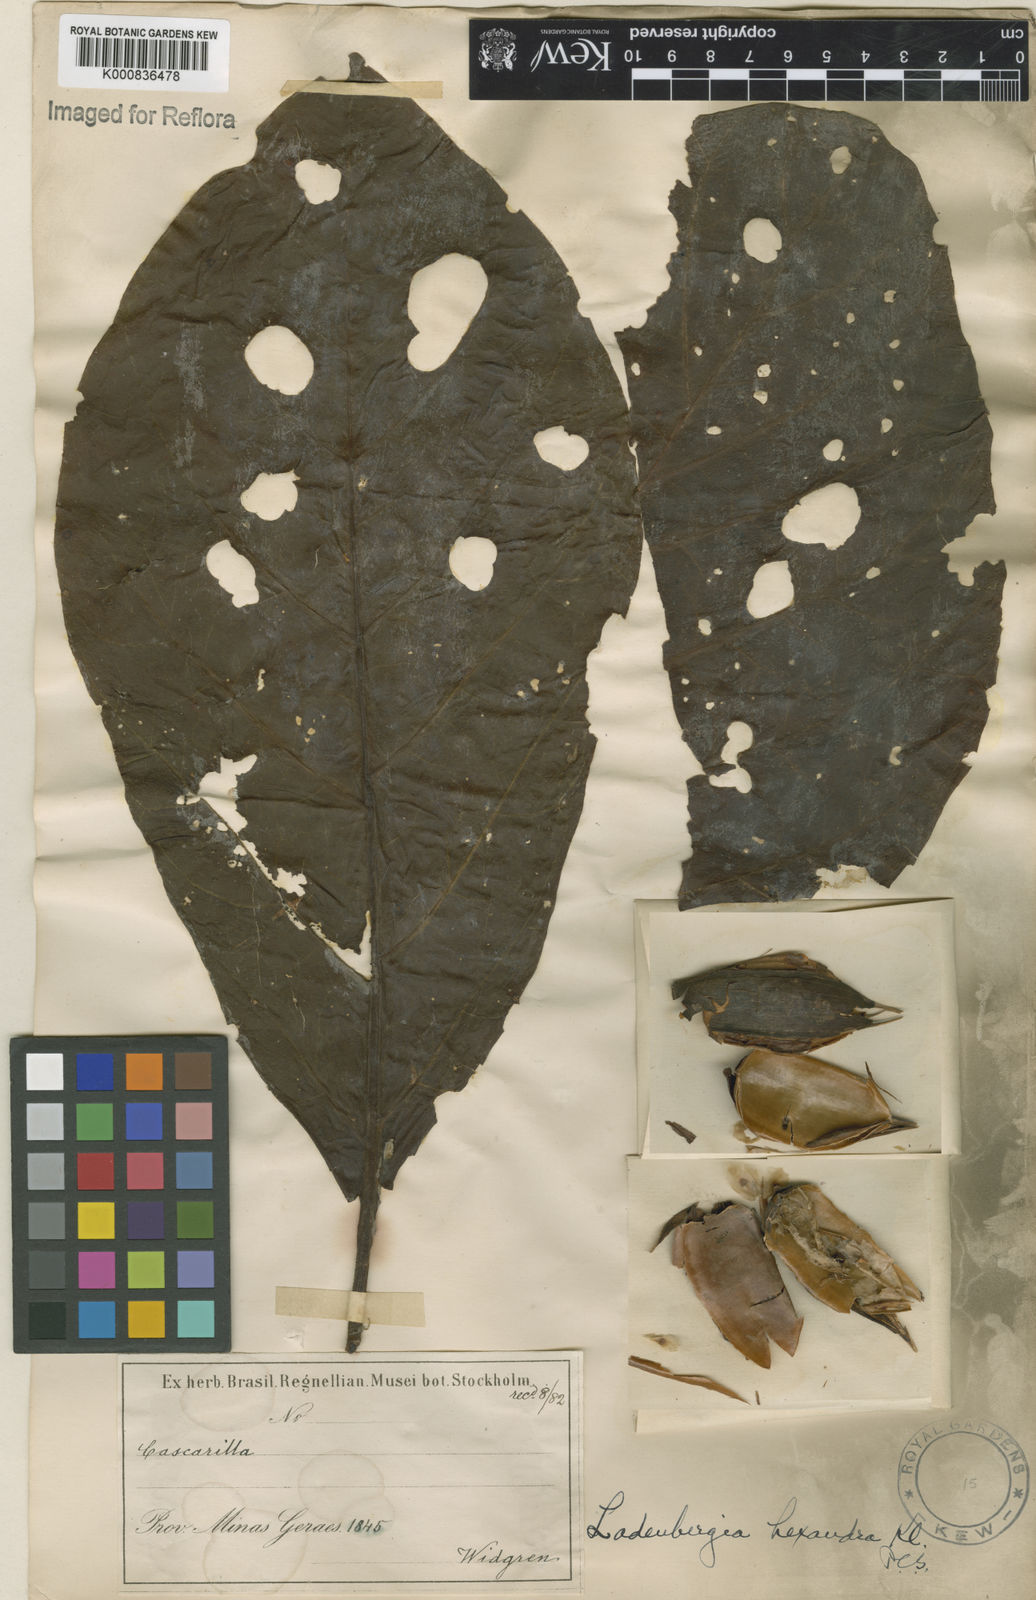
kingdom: Plantae
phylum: Tracheophyta
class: Magnoliopsida
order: Gentianales
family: Rubiaceae
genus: Ladenbergia
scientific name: Ladenbergia hexandra
